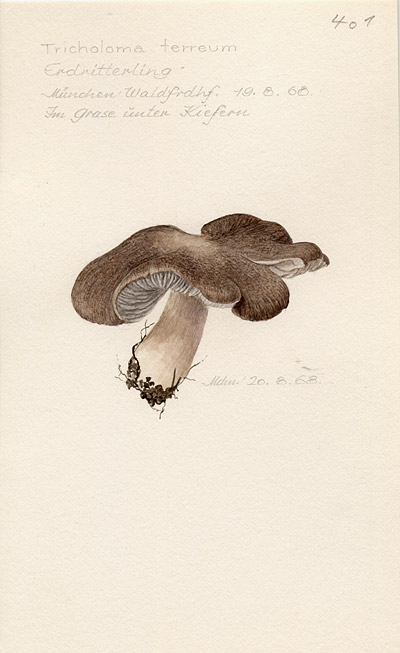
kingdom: Fungi
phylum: Basidiomycota
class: Agaricomycetes
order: Agaricales
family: Tricholomataceae
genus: Tricholoma
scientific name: Tricholoma terreum
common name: Grey knight
